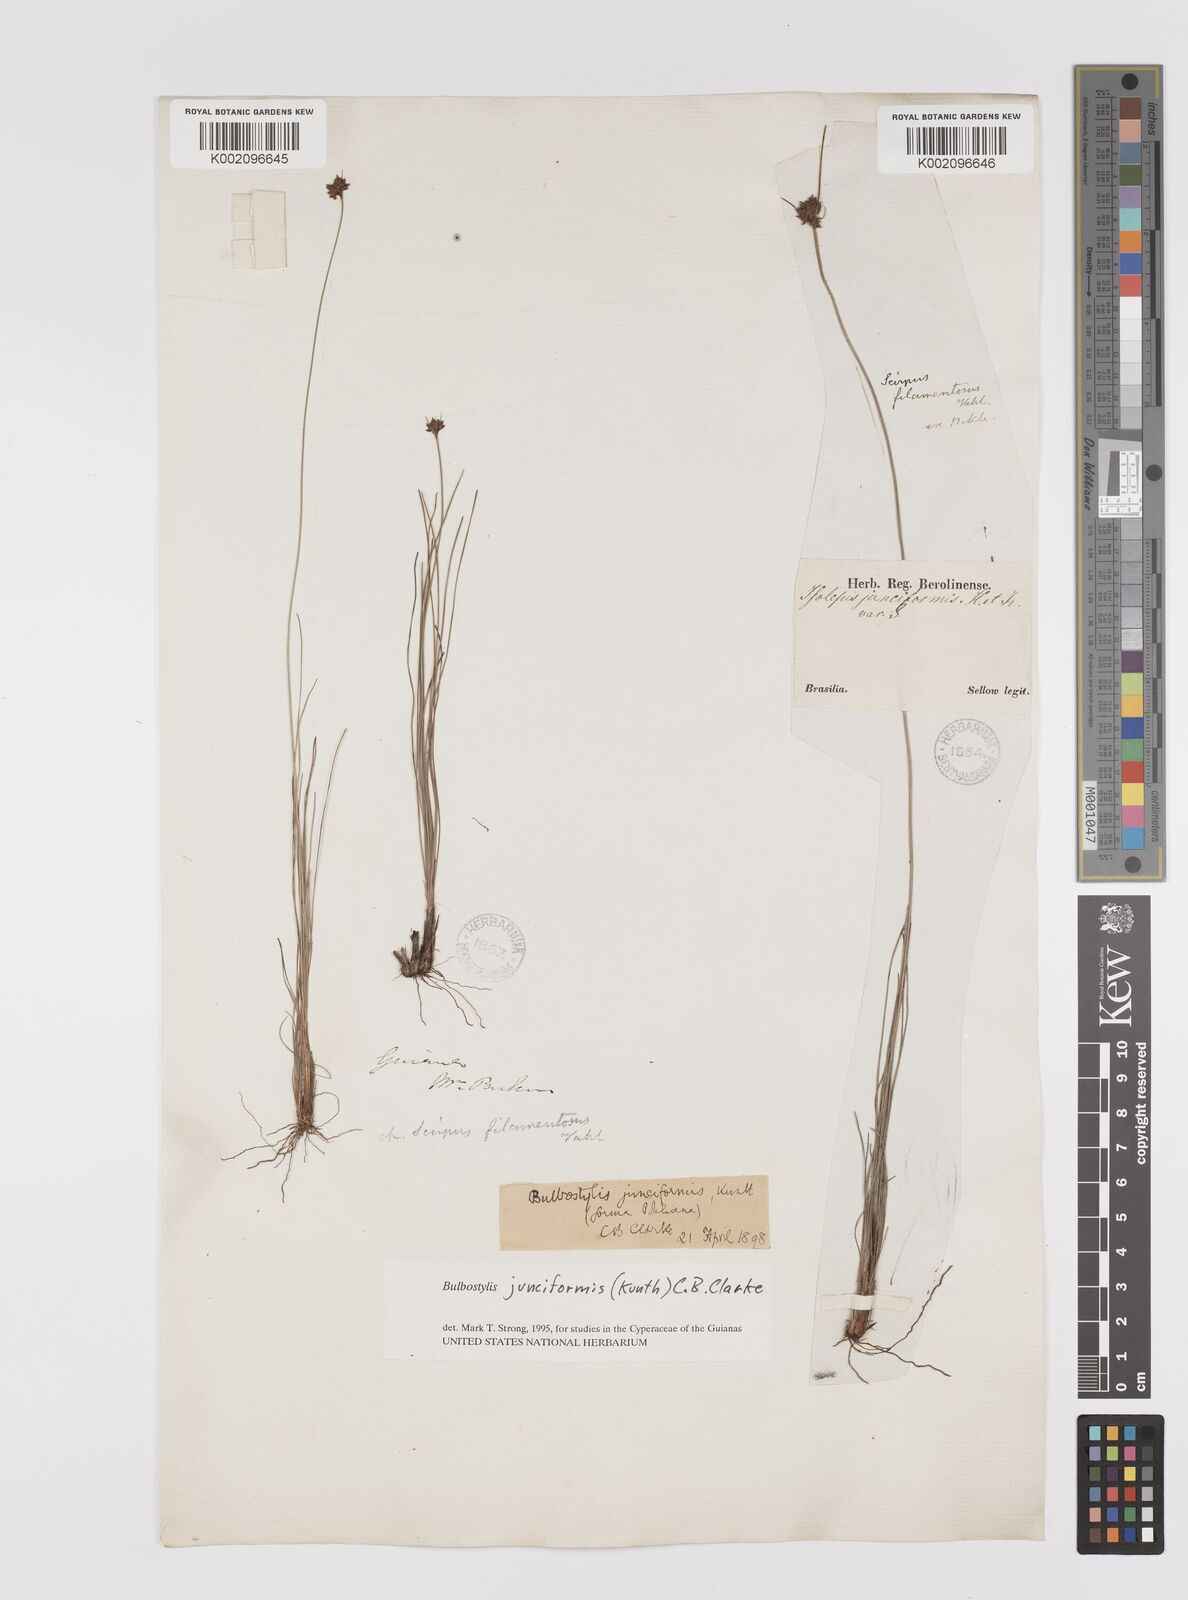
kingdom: Plantae
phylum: Tracheophyta
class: Liliopsida
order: Poales
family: Cyperaceae
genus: Bulbostylis
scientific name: Bulbostylis junciformis
